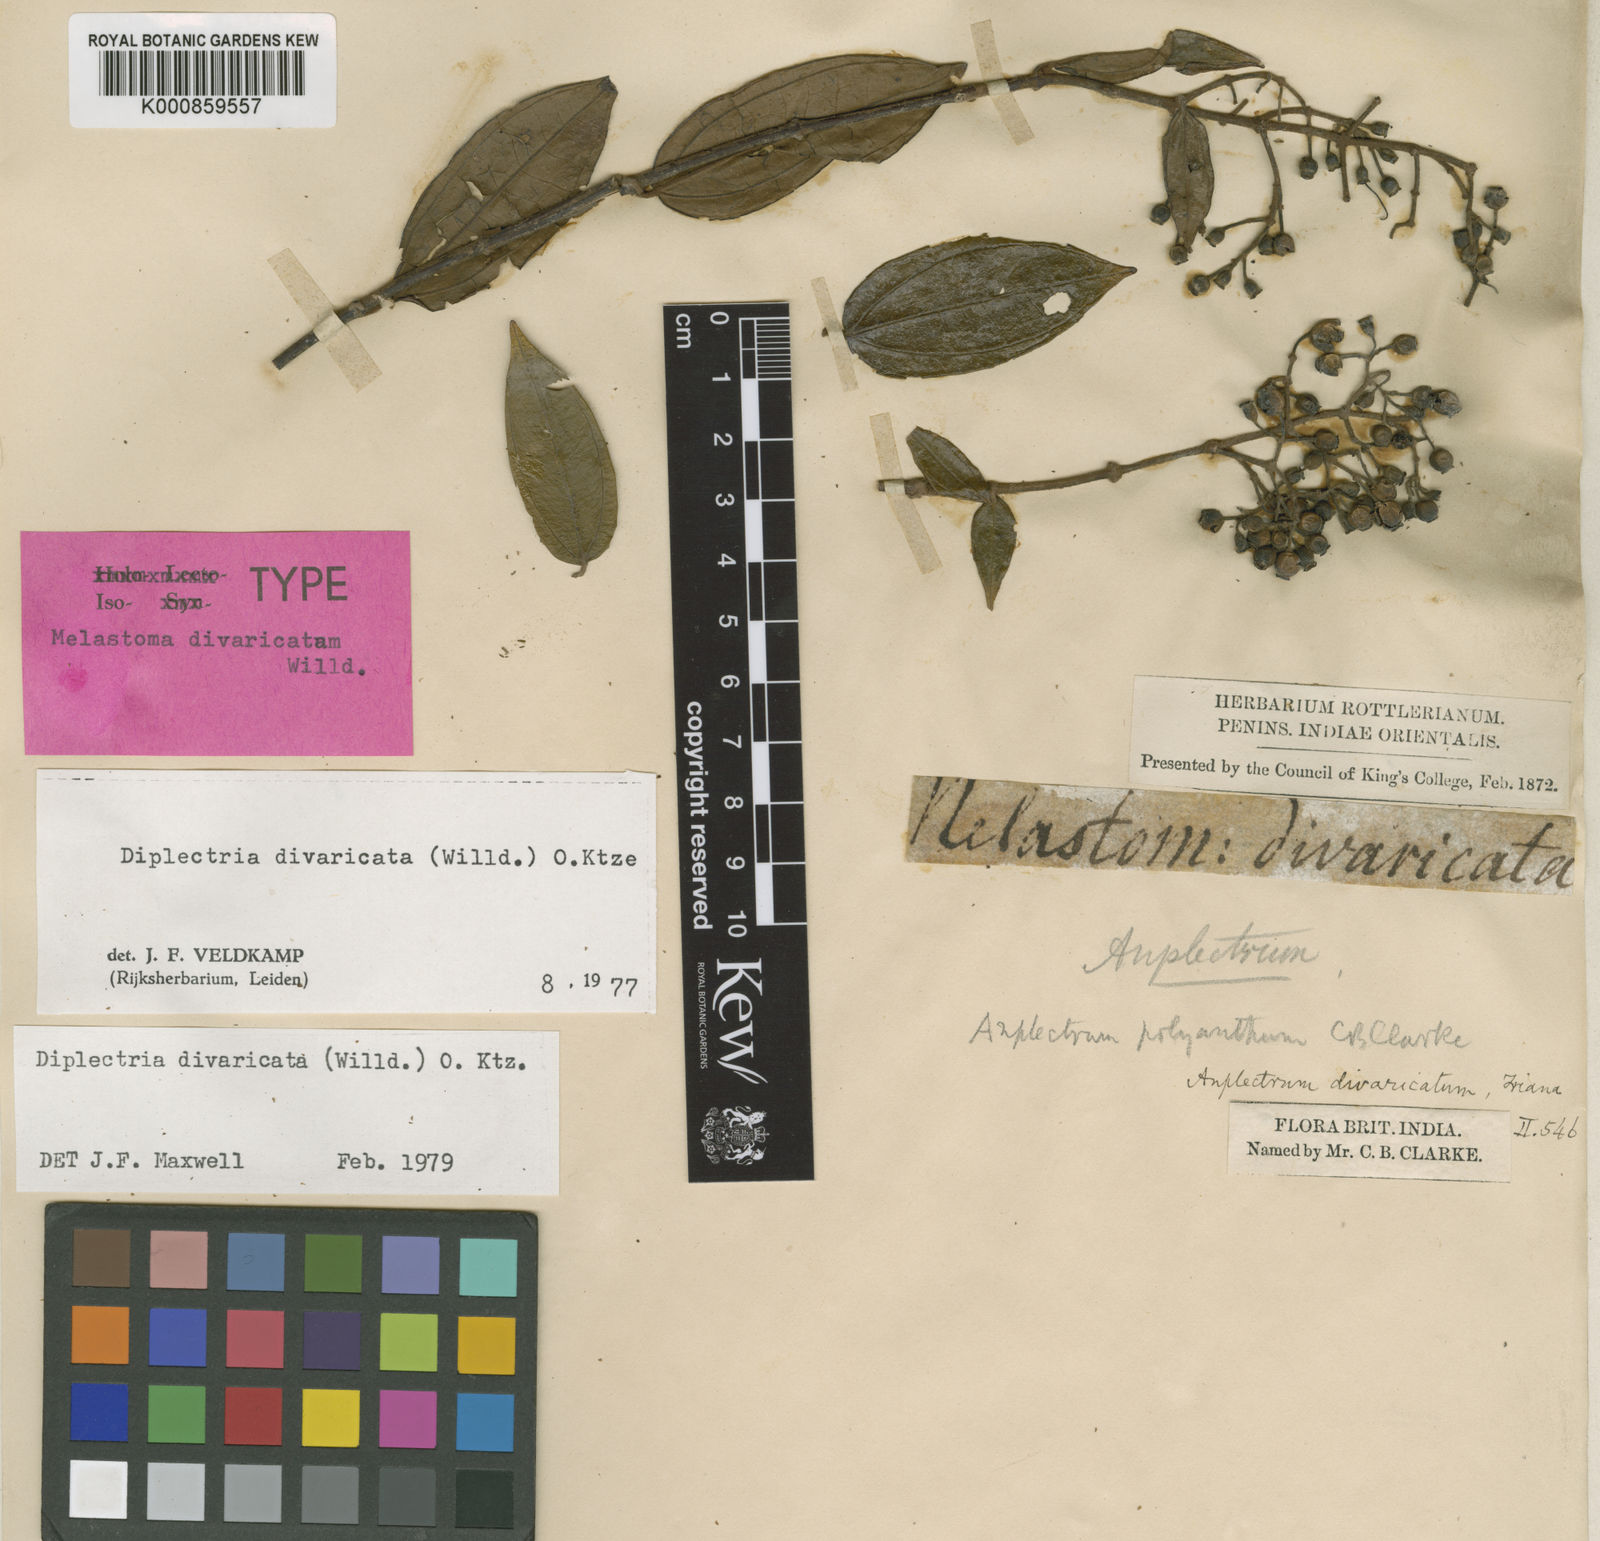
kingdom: Plantae
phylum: Tracheophyta
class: Magnoliopsida
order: Myrtales
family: Melastomataceae
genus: Diplectria
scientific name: Diplectria divaricata
